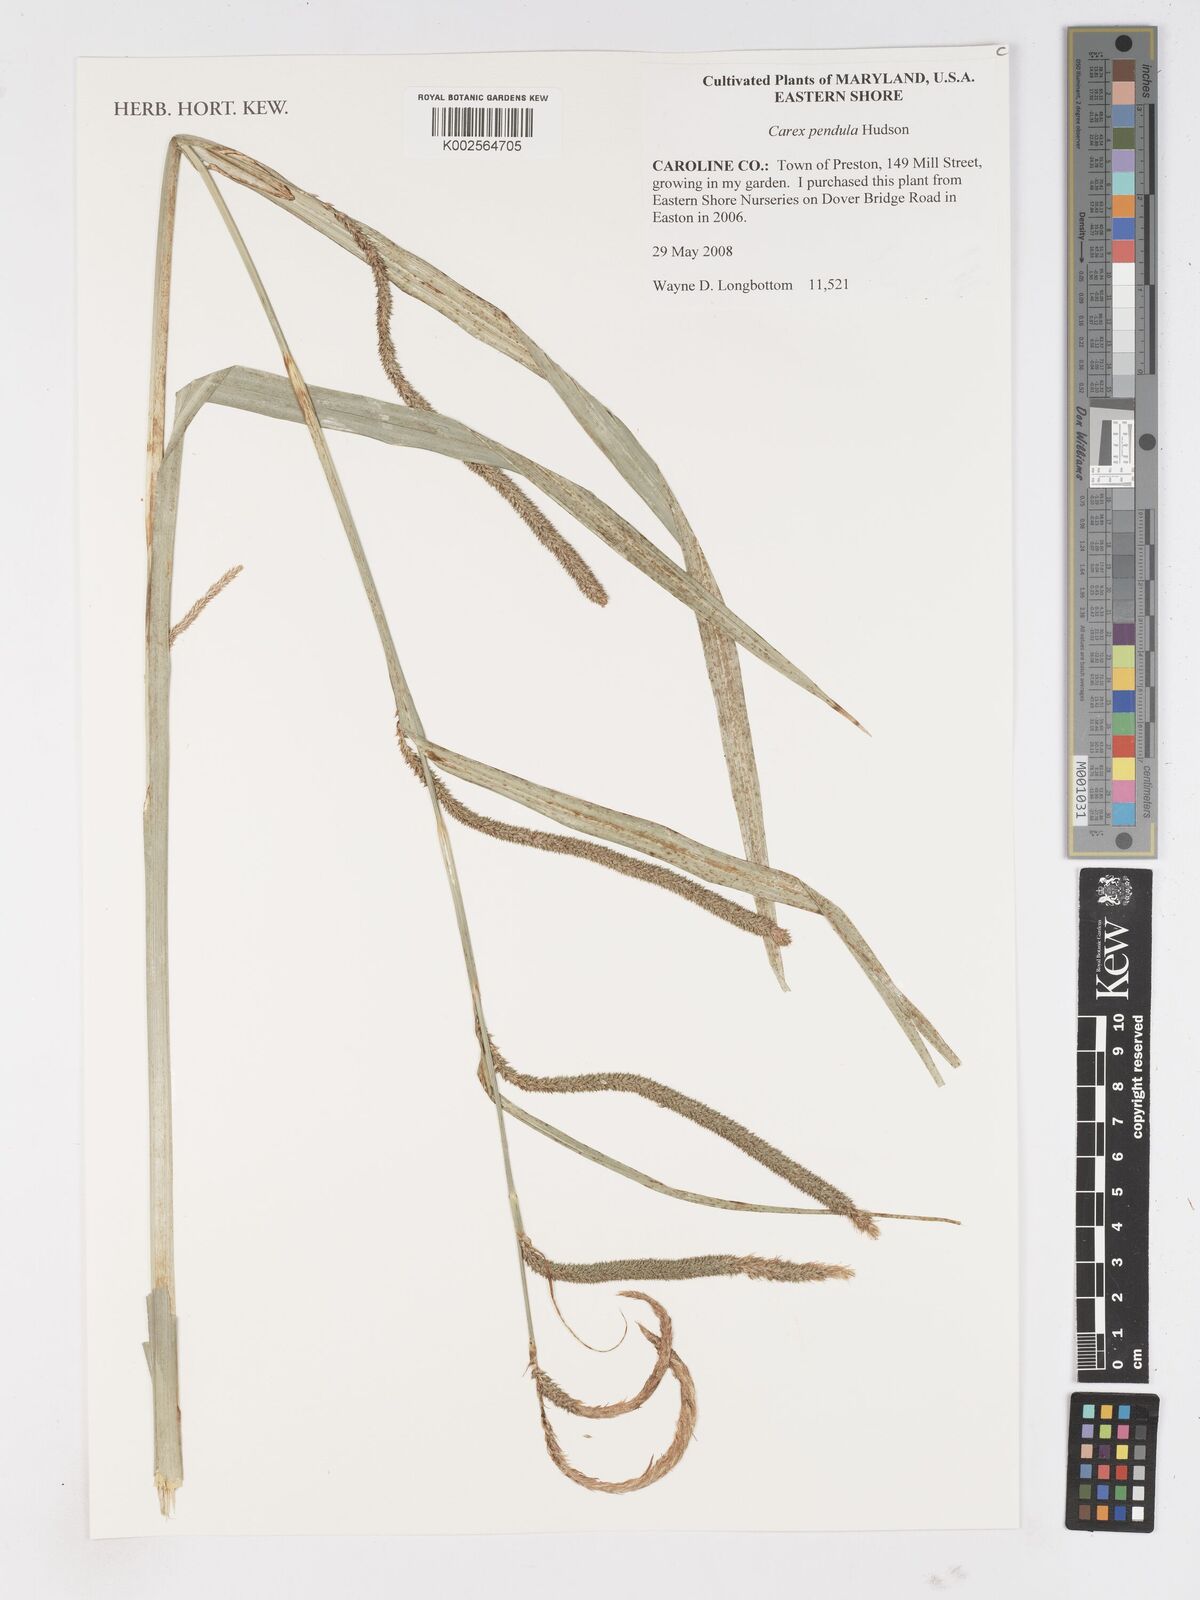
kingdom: Plantae
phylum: Tracheophyta
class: Liliopsida
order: Poales
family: Cyperaceae
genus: Carex
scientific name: Carex pendula
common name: Pendulous sedge
